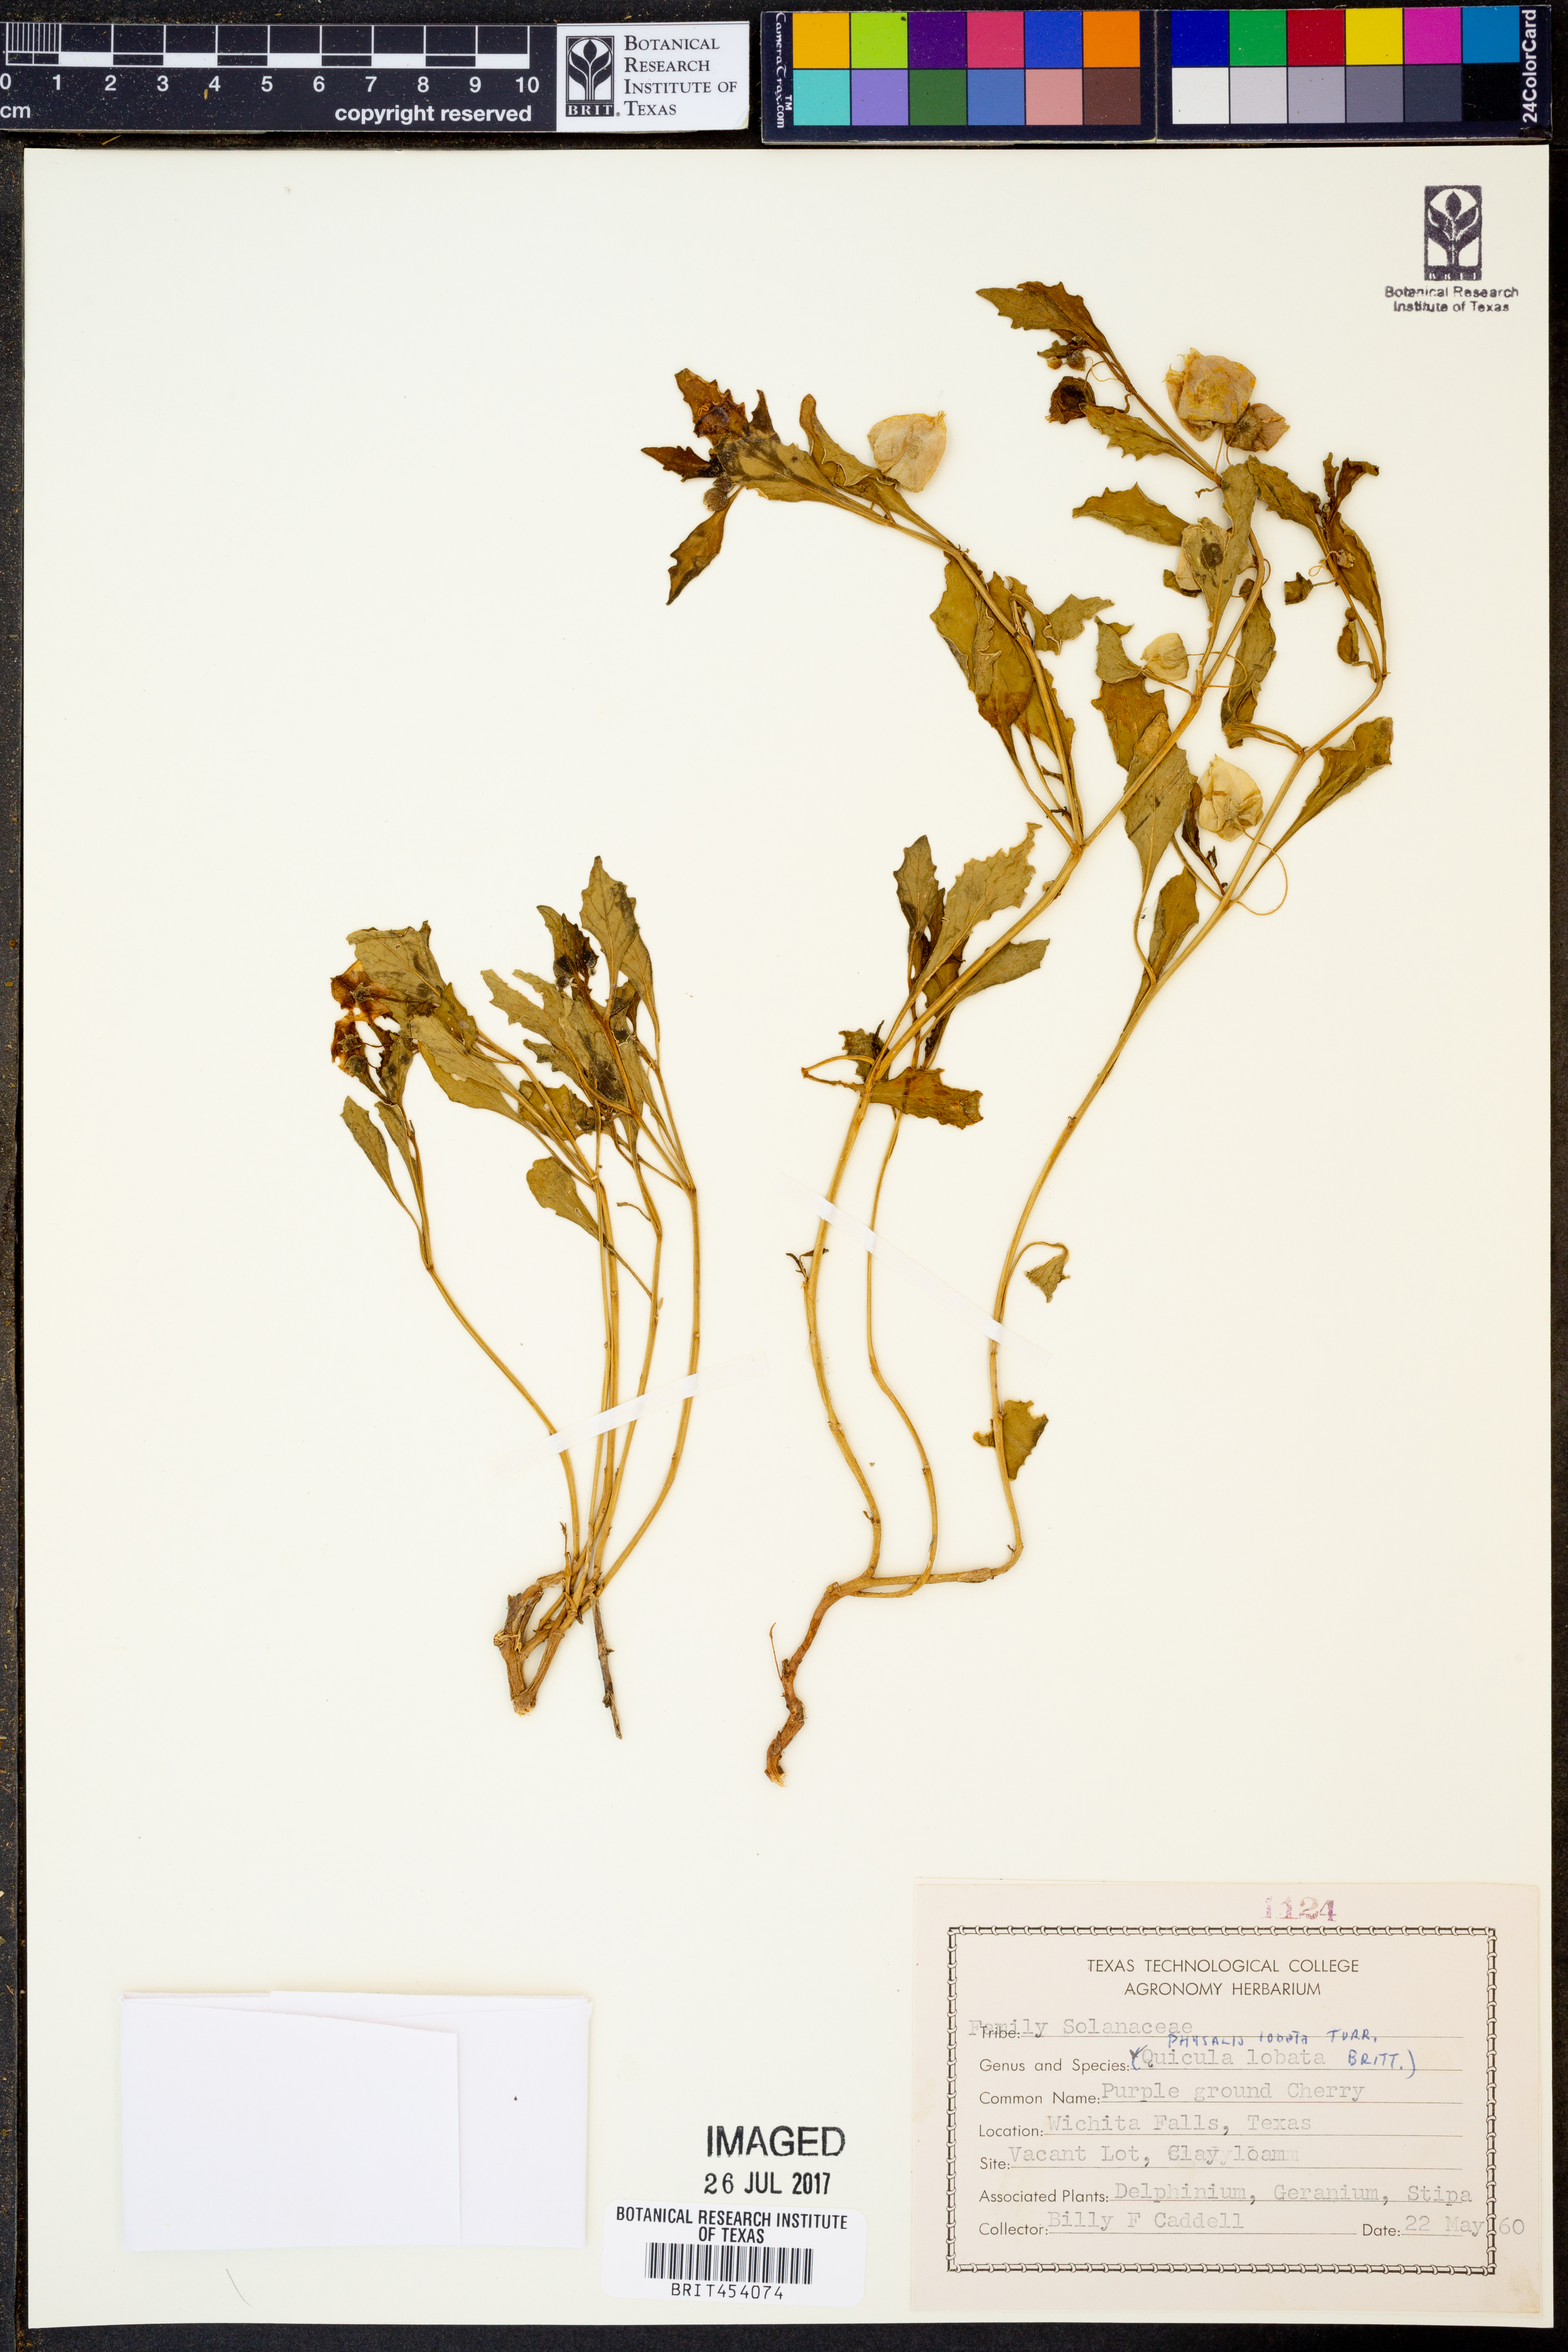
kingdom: Plantae
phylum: Tracheophyta
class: Magnoliopsida
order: Solanales
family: Solanaceae
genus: Quincula
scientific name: Quincula lobata
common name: Purple-ground-cherry
